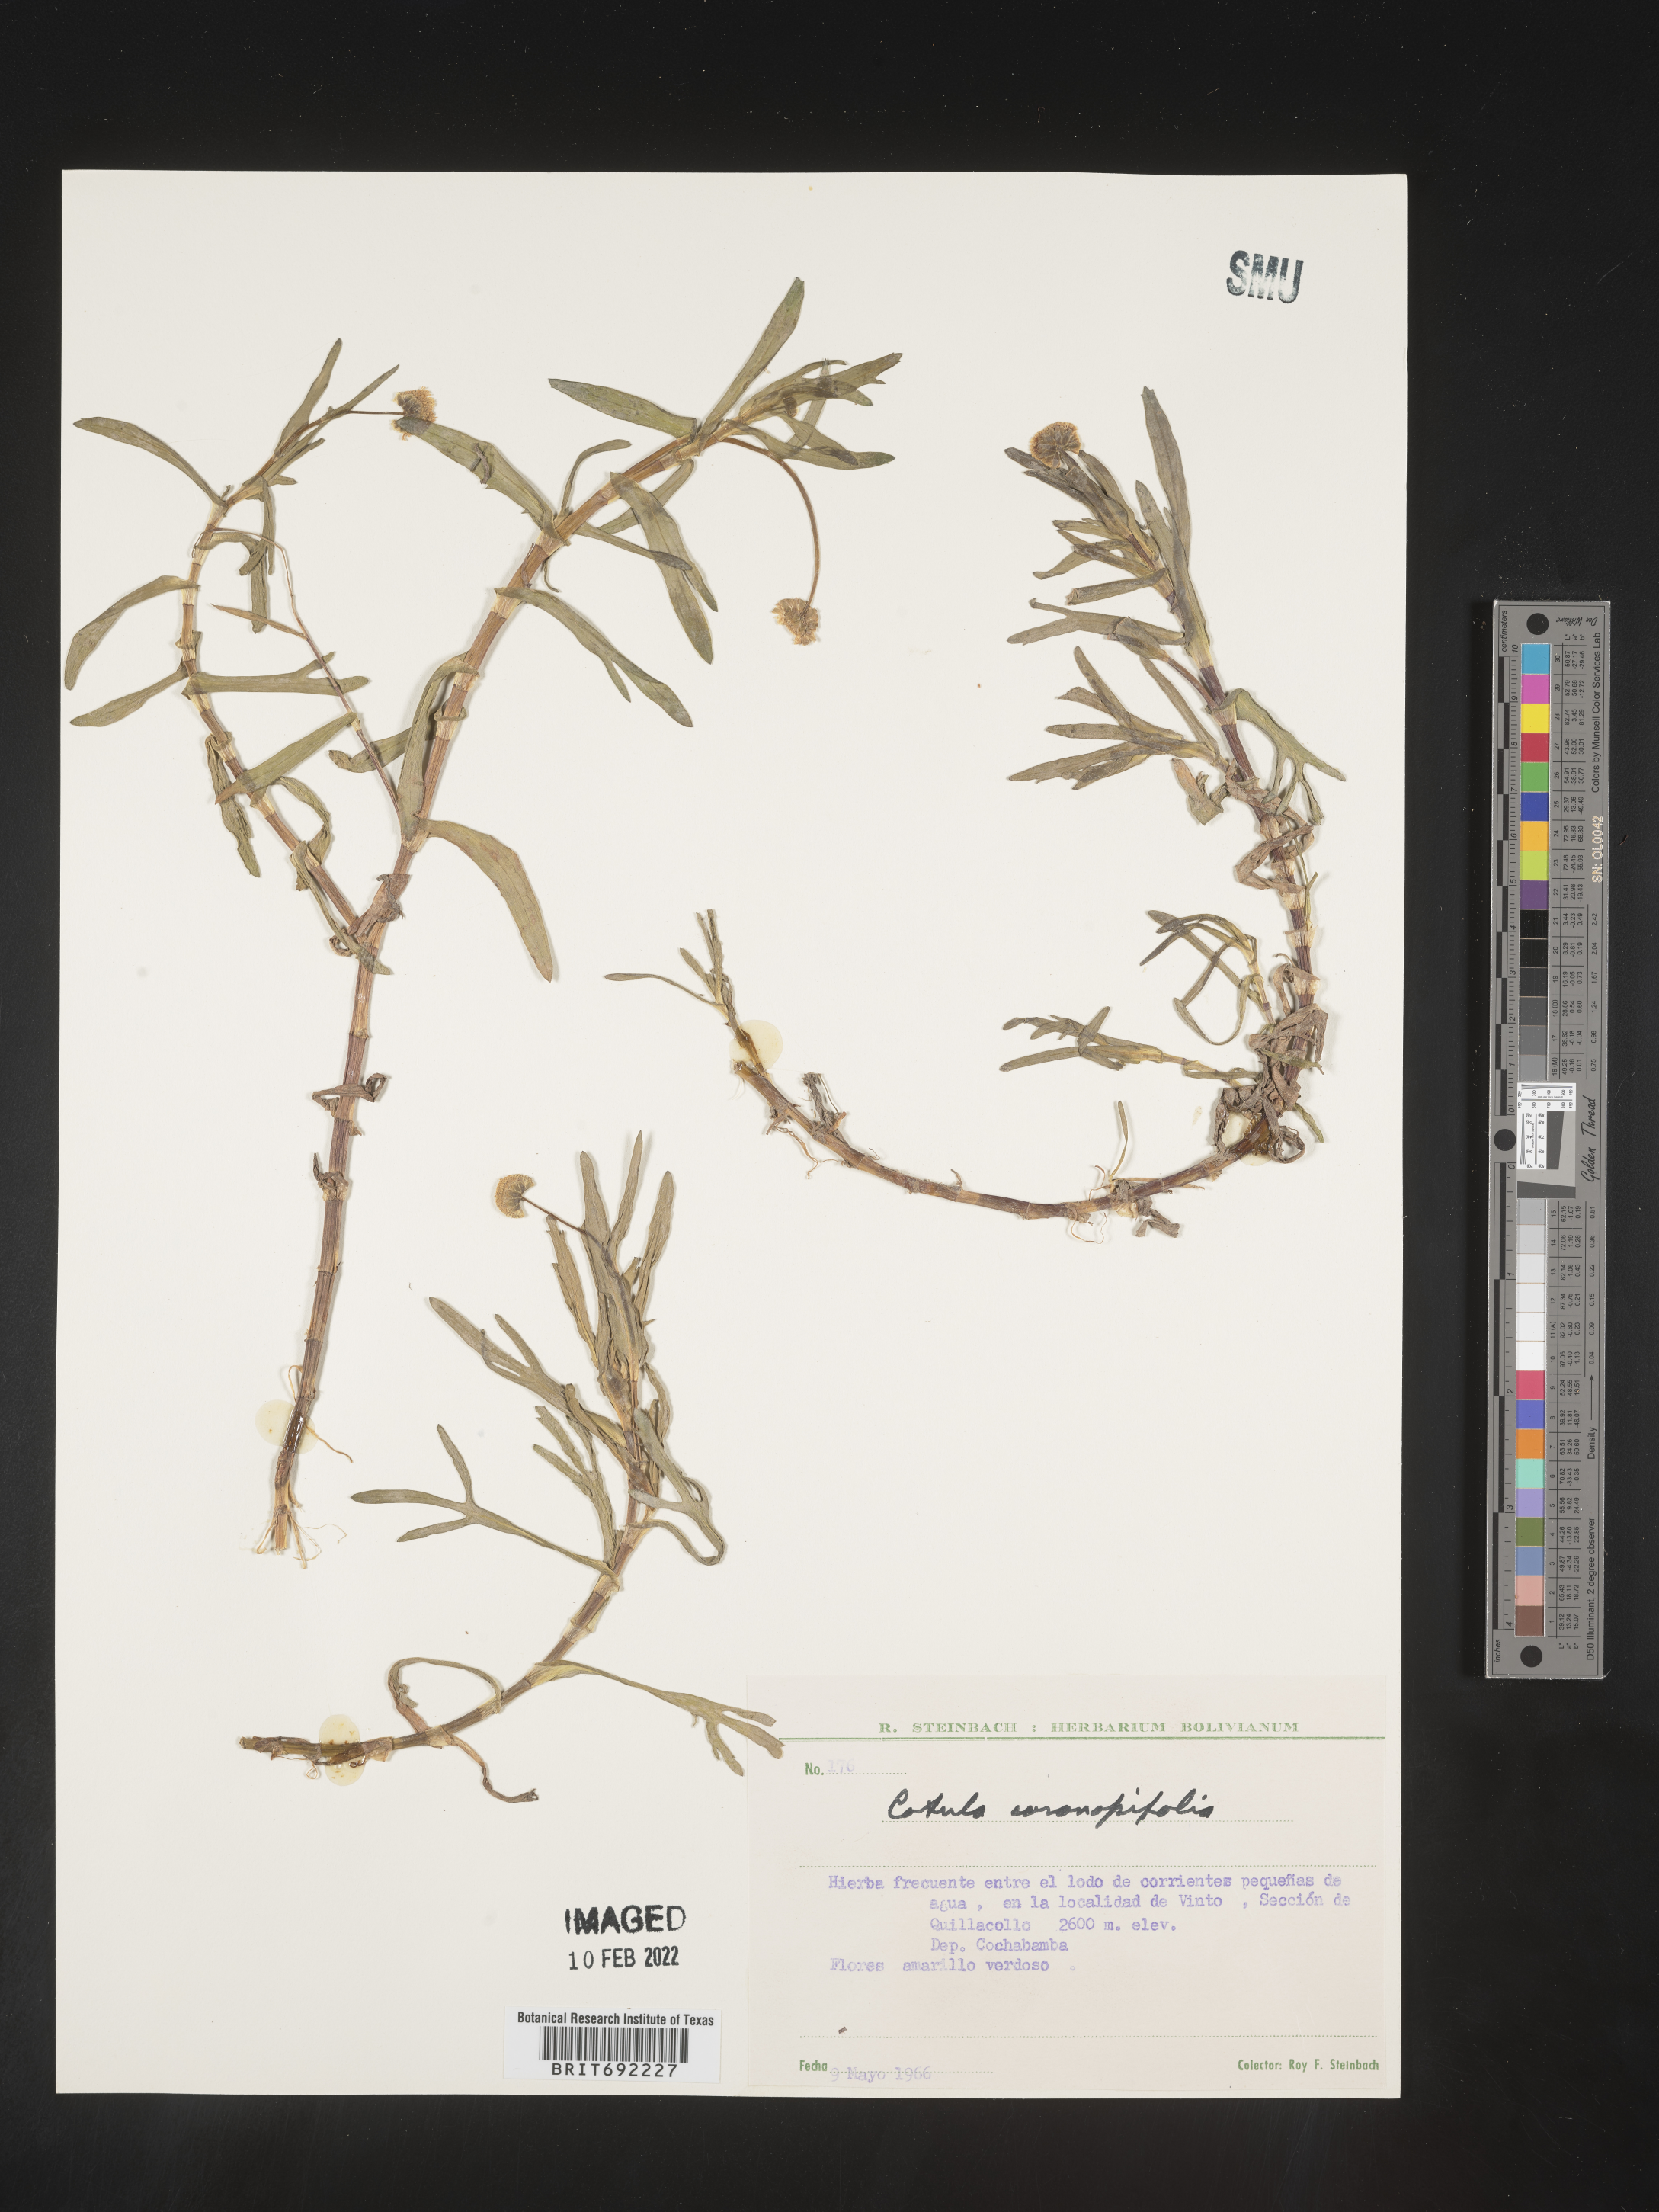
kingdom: Plantae
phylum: Tracheophyta
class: Magnoliopsida
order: Asterales
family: Asteraceae
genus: Cotula
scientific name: Cotula
